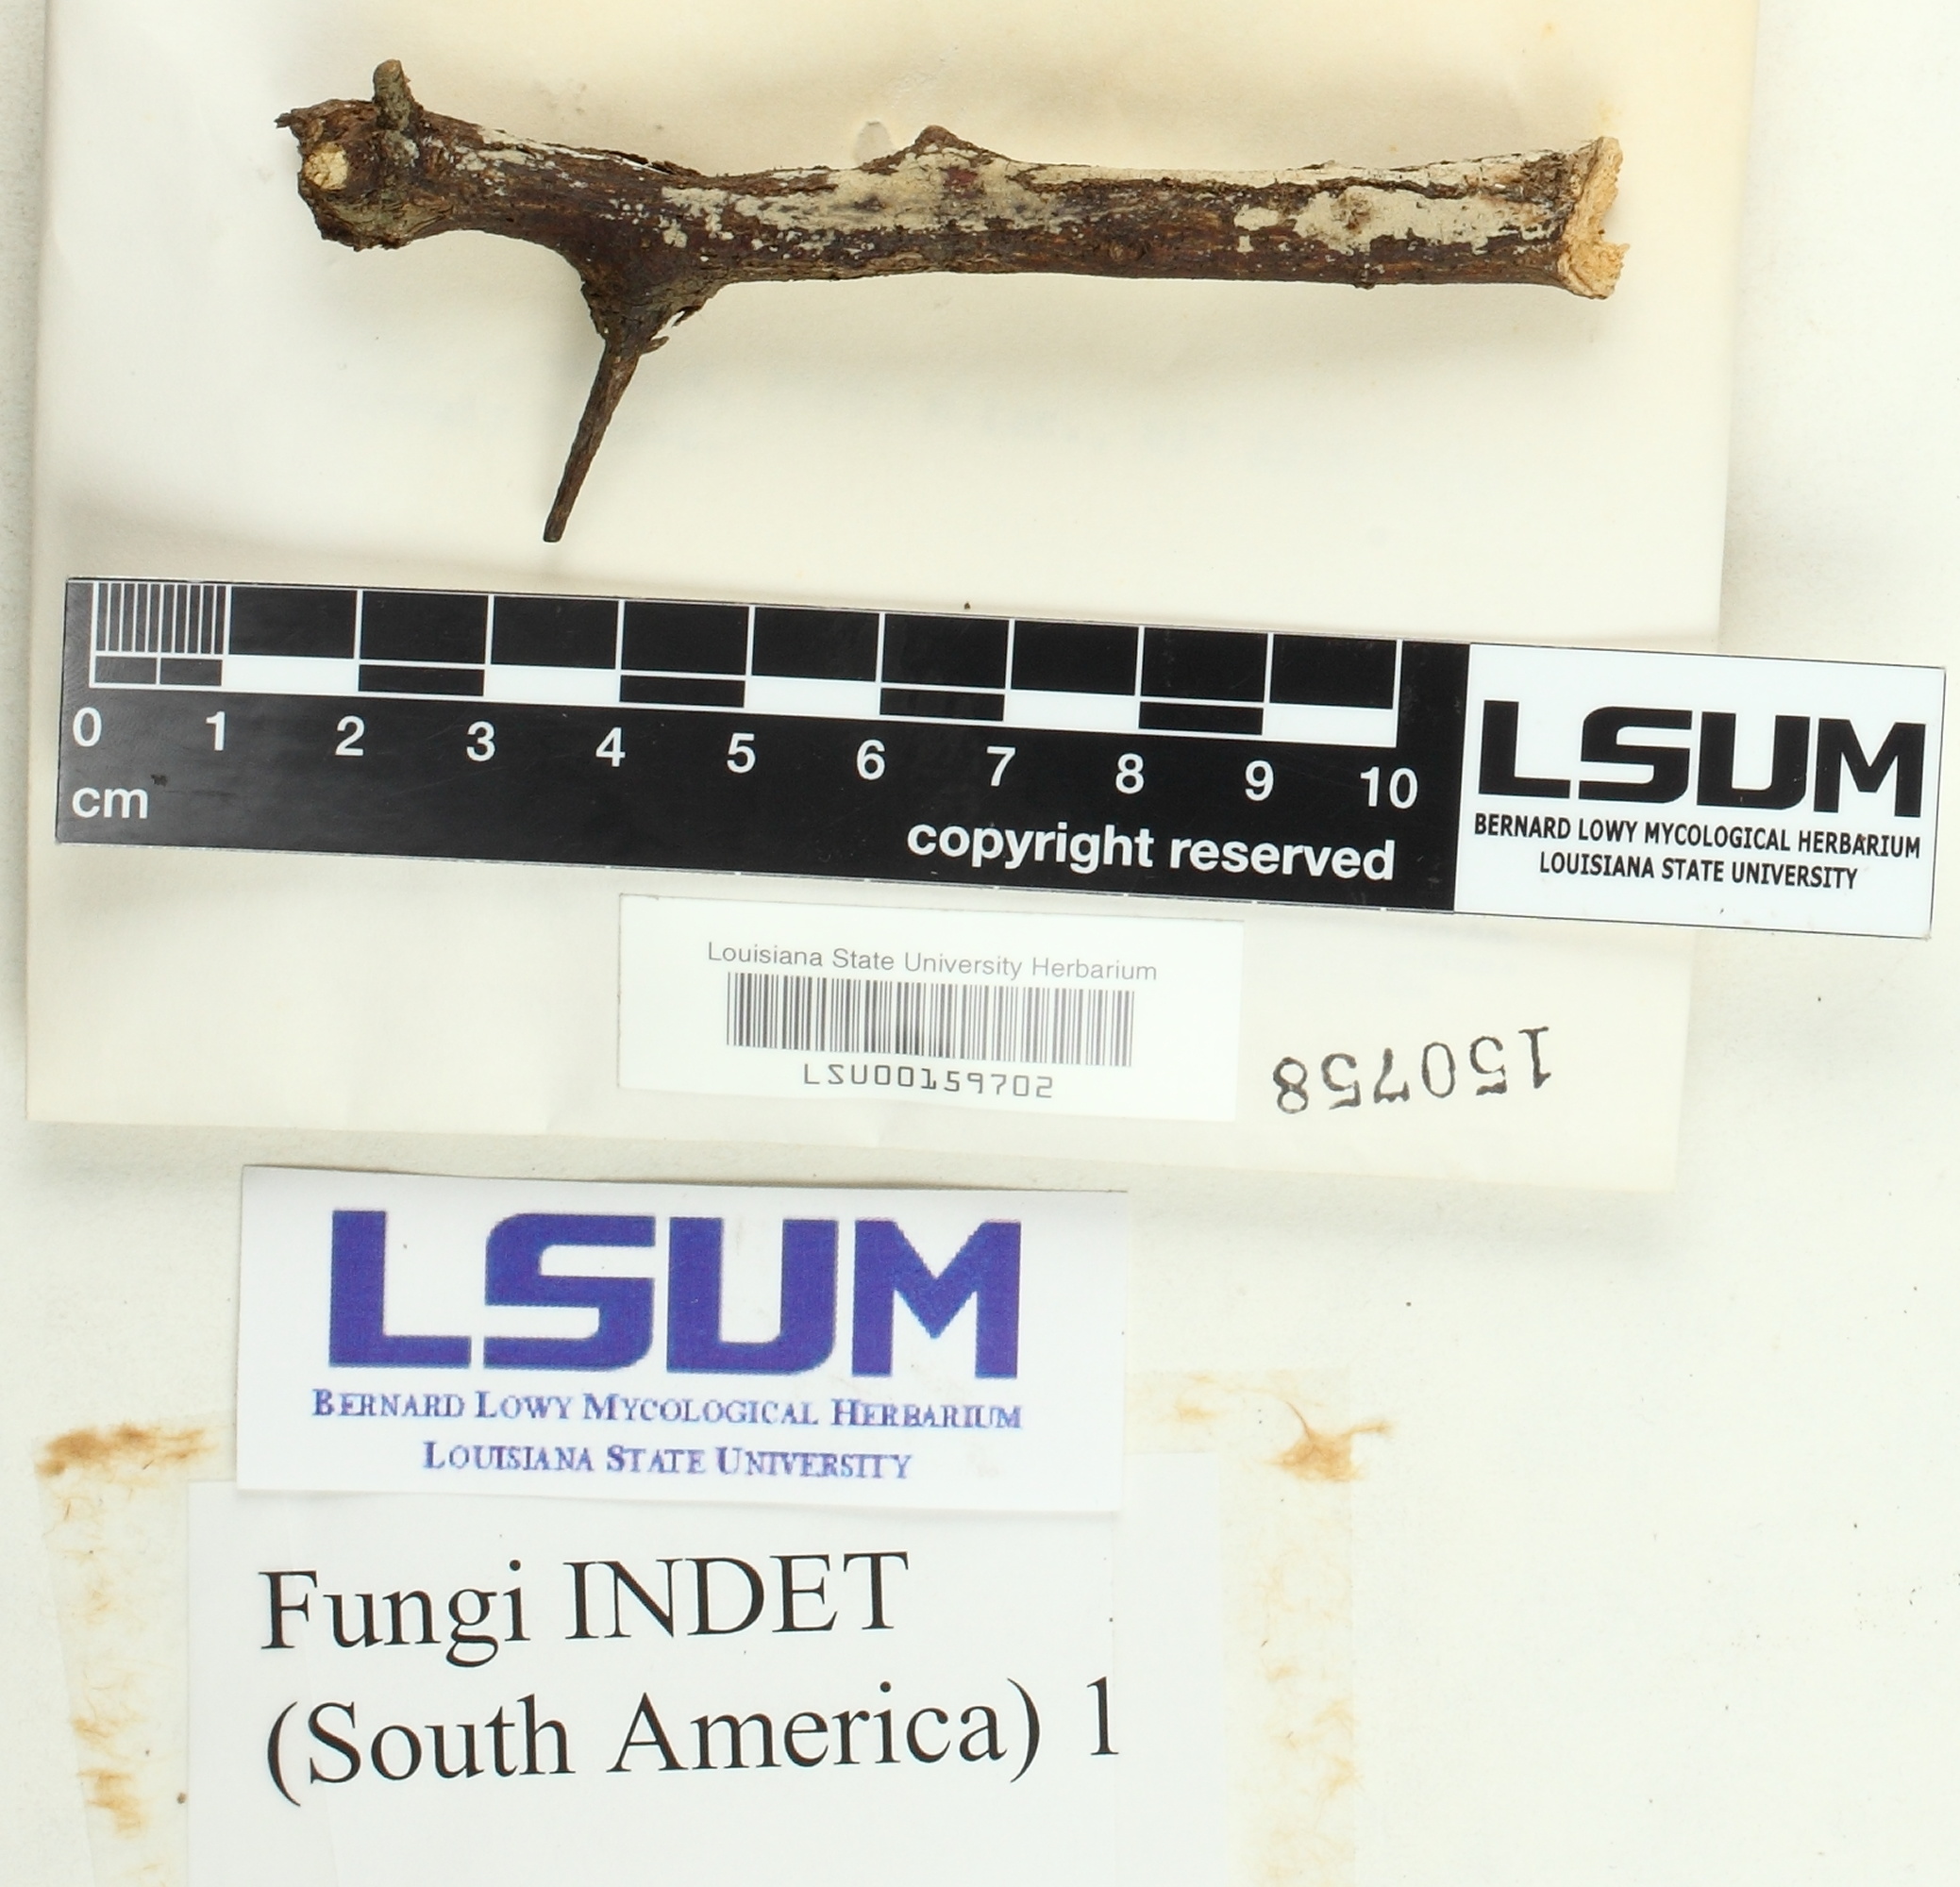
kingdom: Fungi
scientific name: Fungi
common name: Fungi
